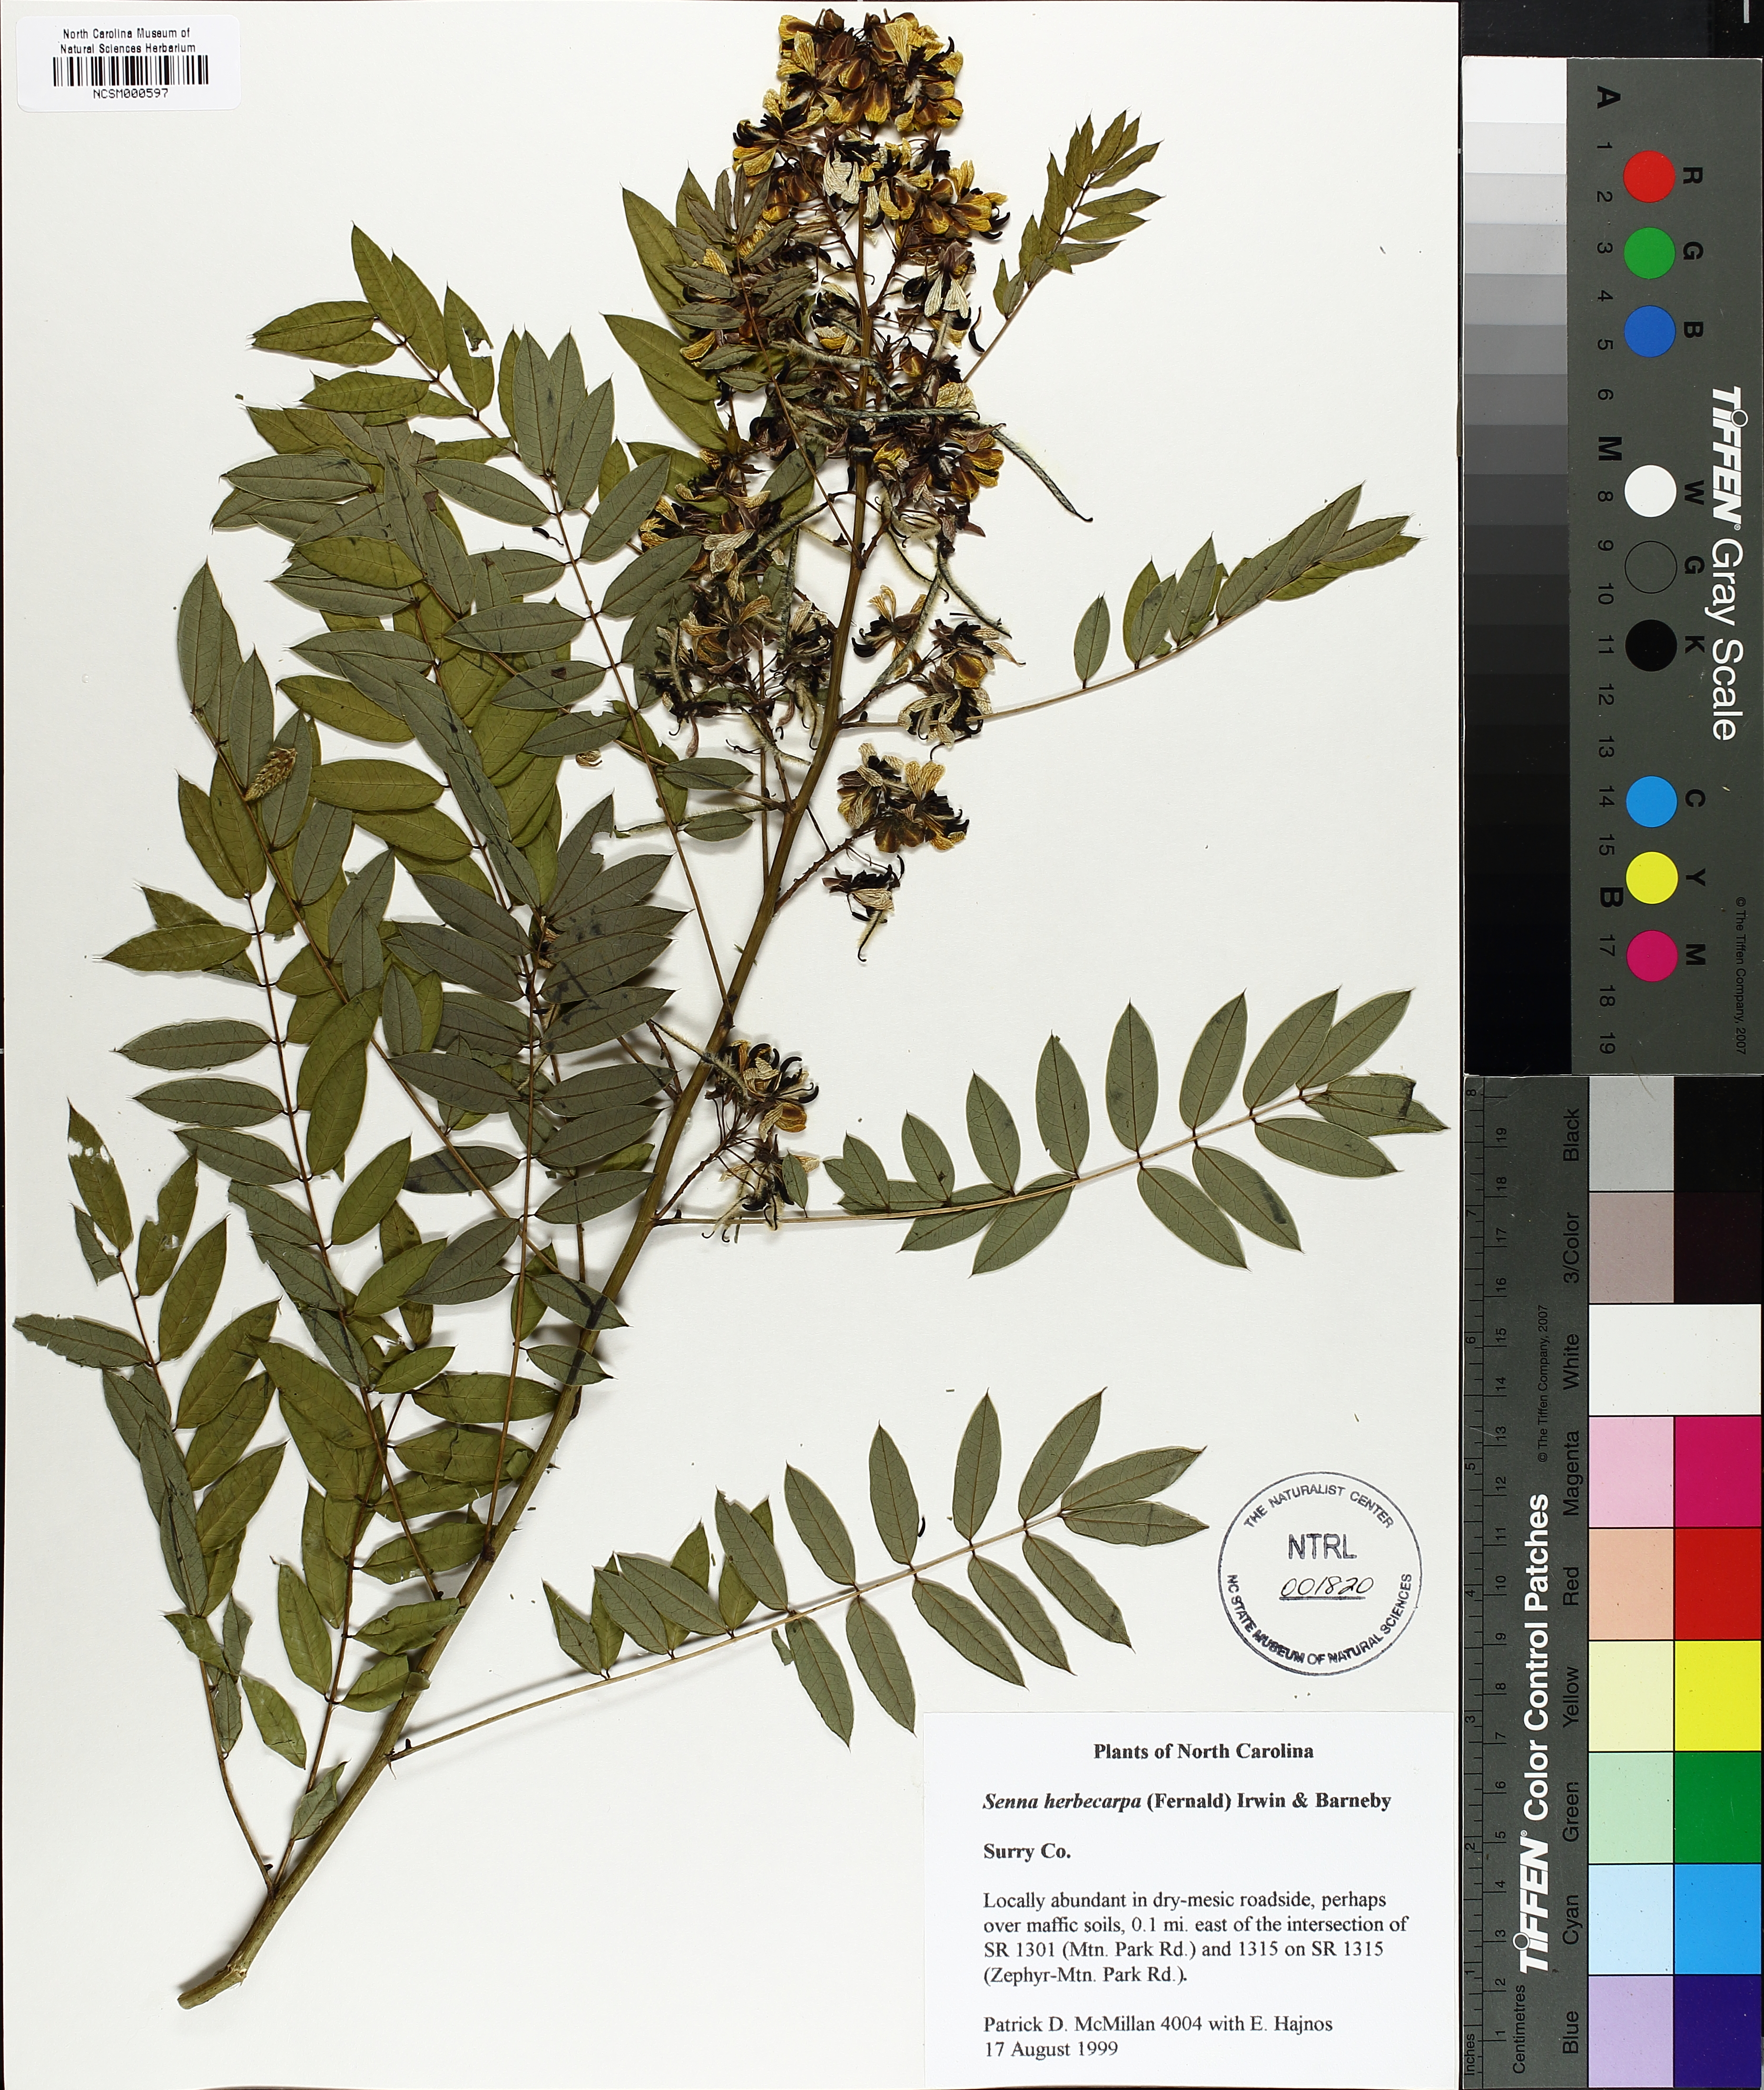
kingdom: Plantae
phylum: Tracheophyta
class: Magnoliopsida
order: Fabales
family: Fabaceae
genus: Senna
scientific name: Senna hebecarpa
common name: Wild senna
